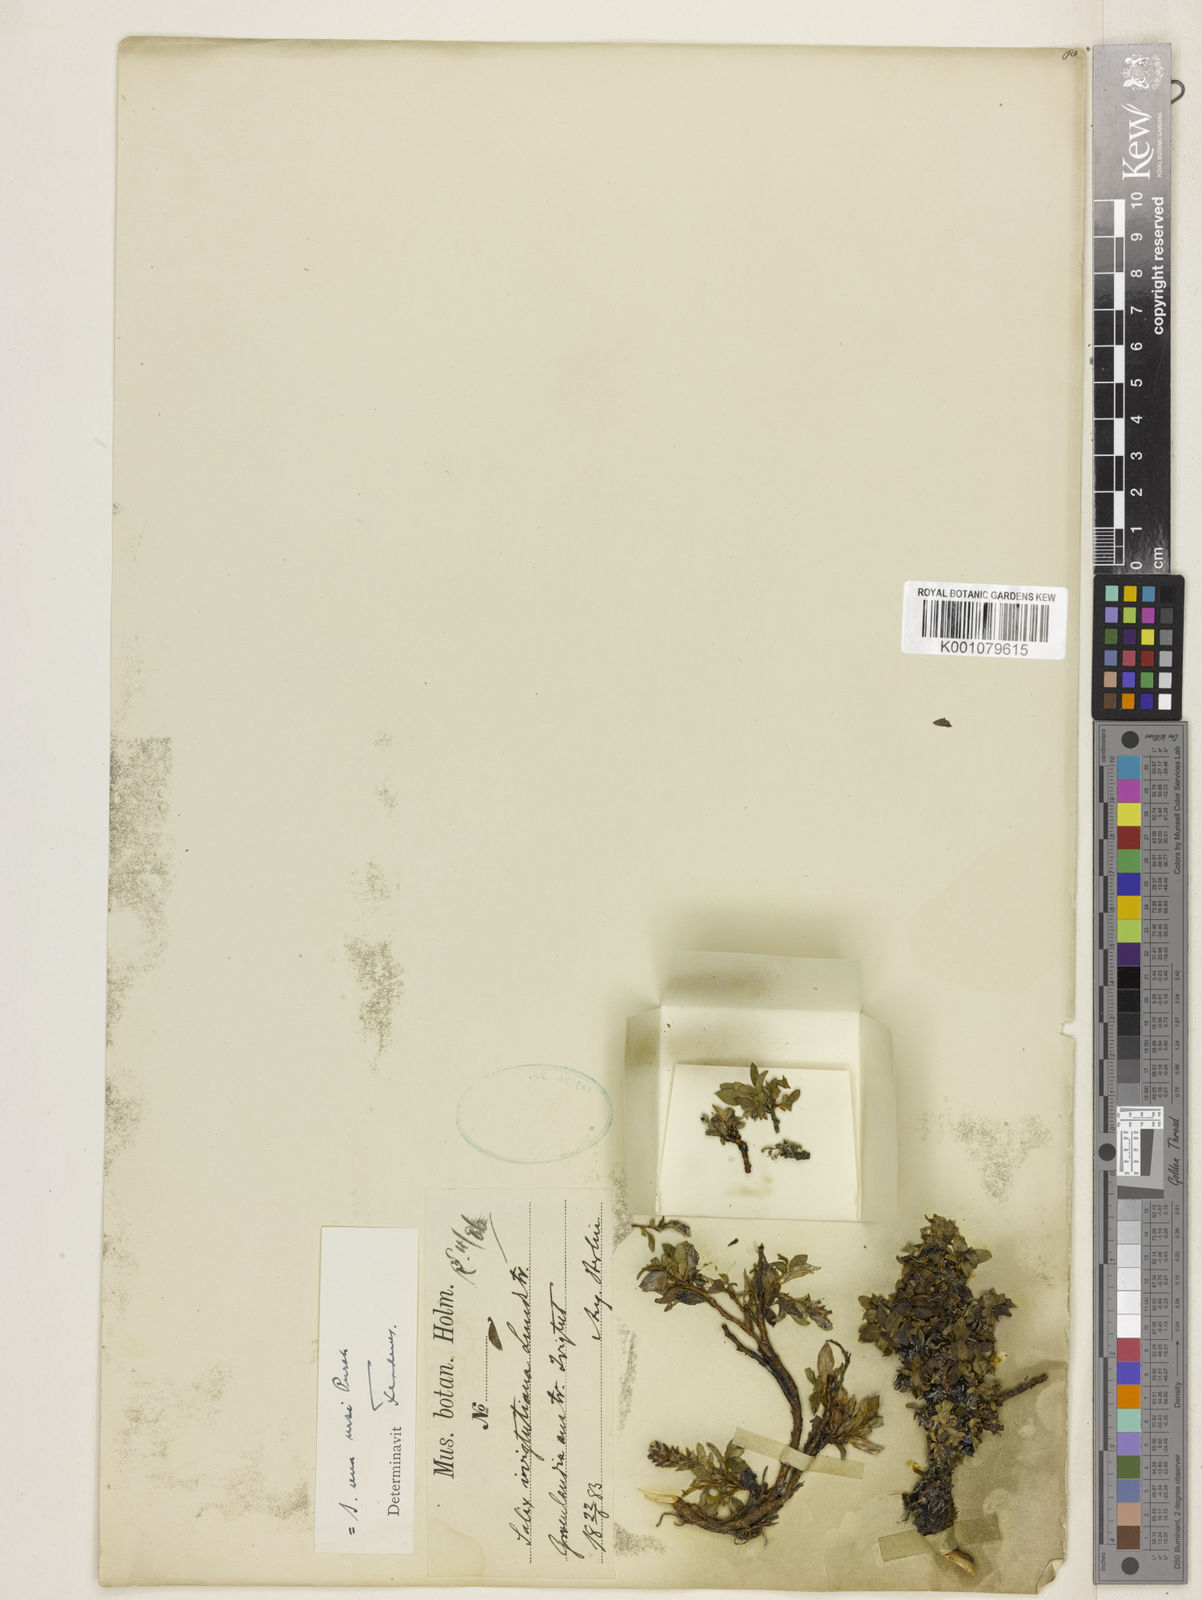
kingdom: Plantae
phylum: Tracheophyta
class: Magnoliopsida
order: Malpighiales
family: Salicaceae
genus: Salix
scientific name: Salix uva-ursi
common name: Bearberry willow
